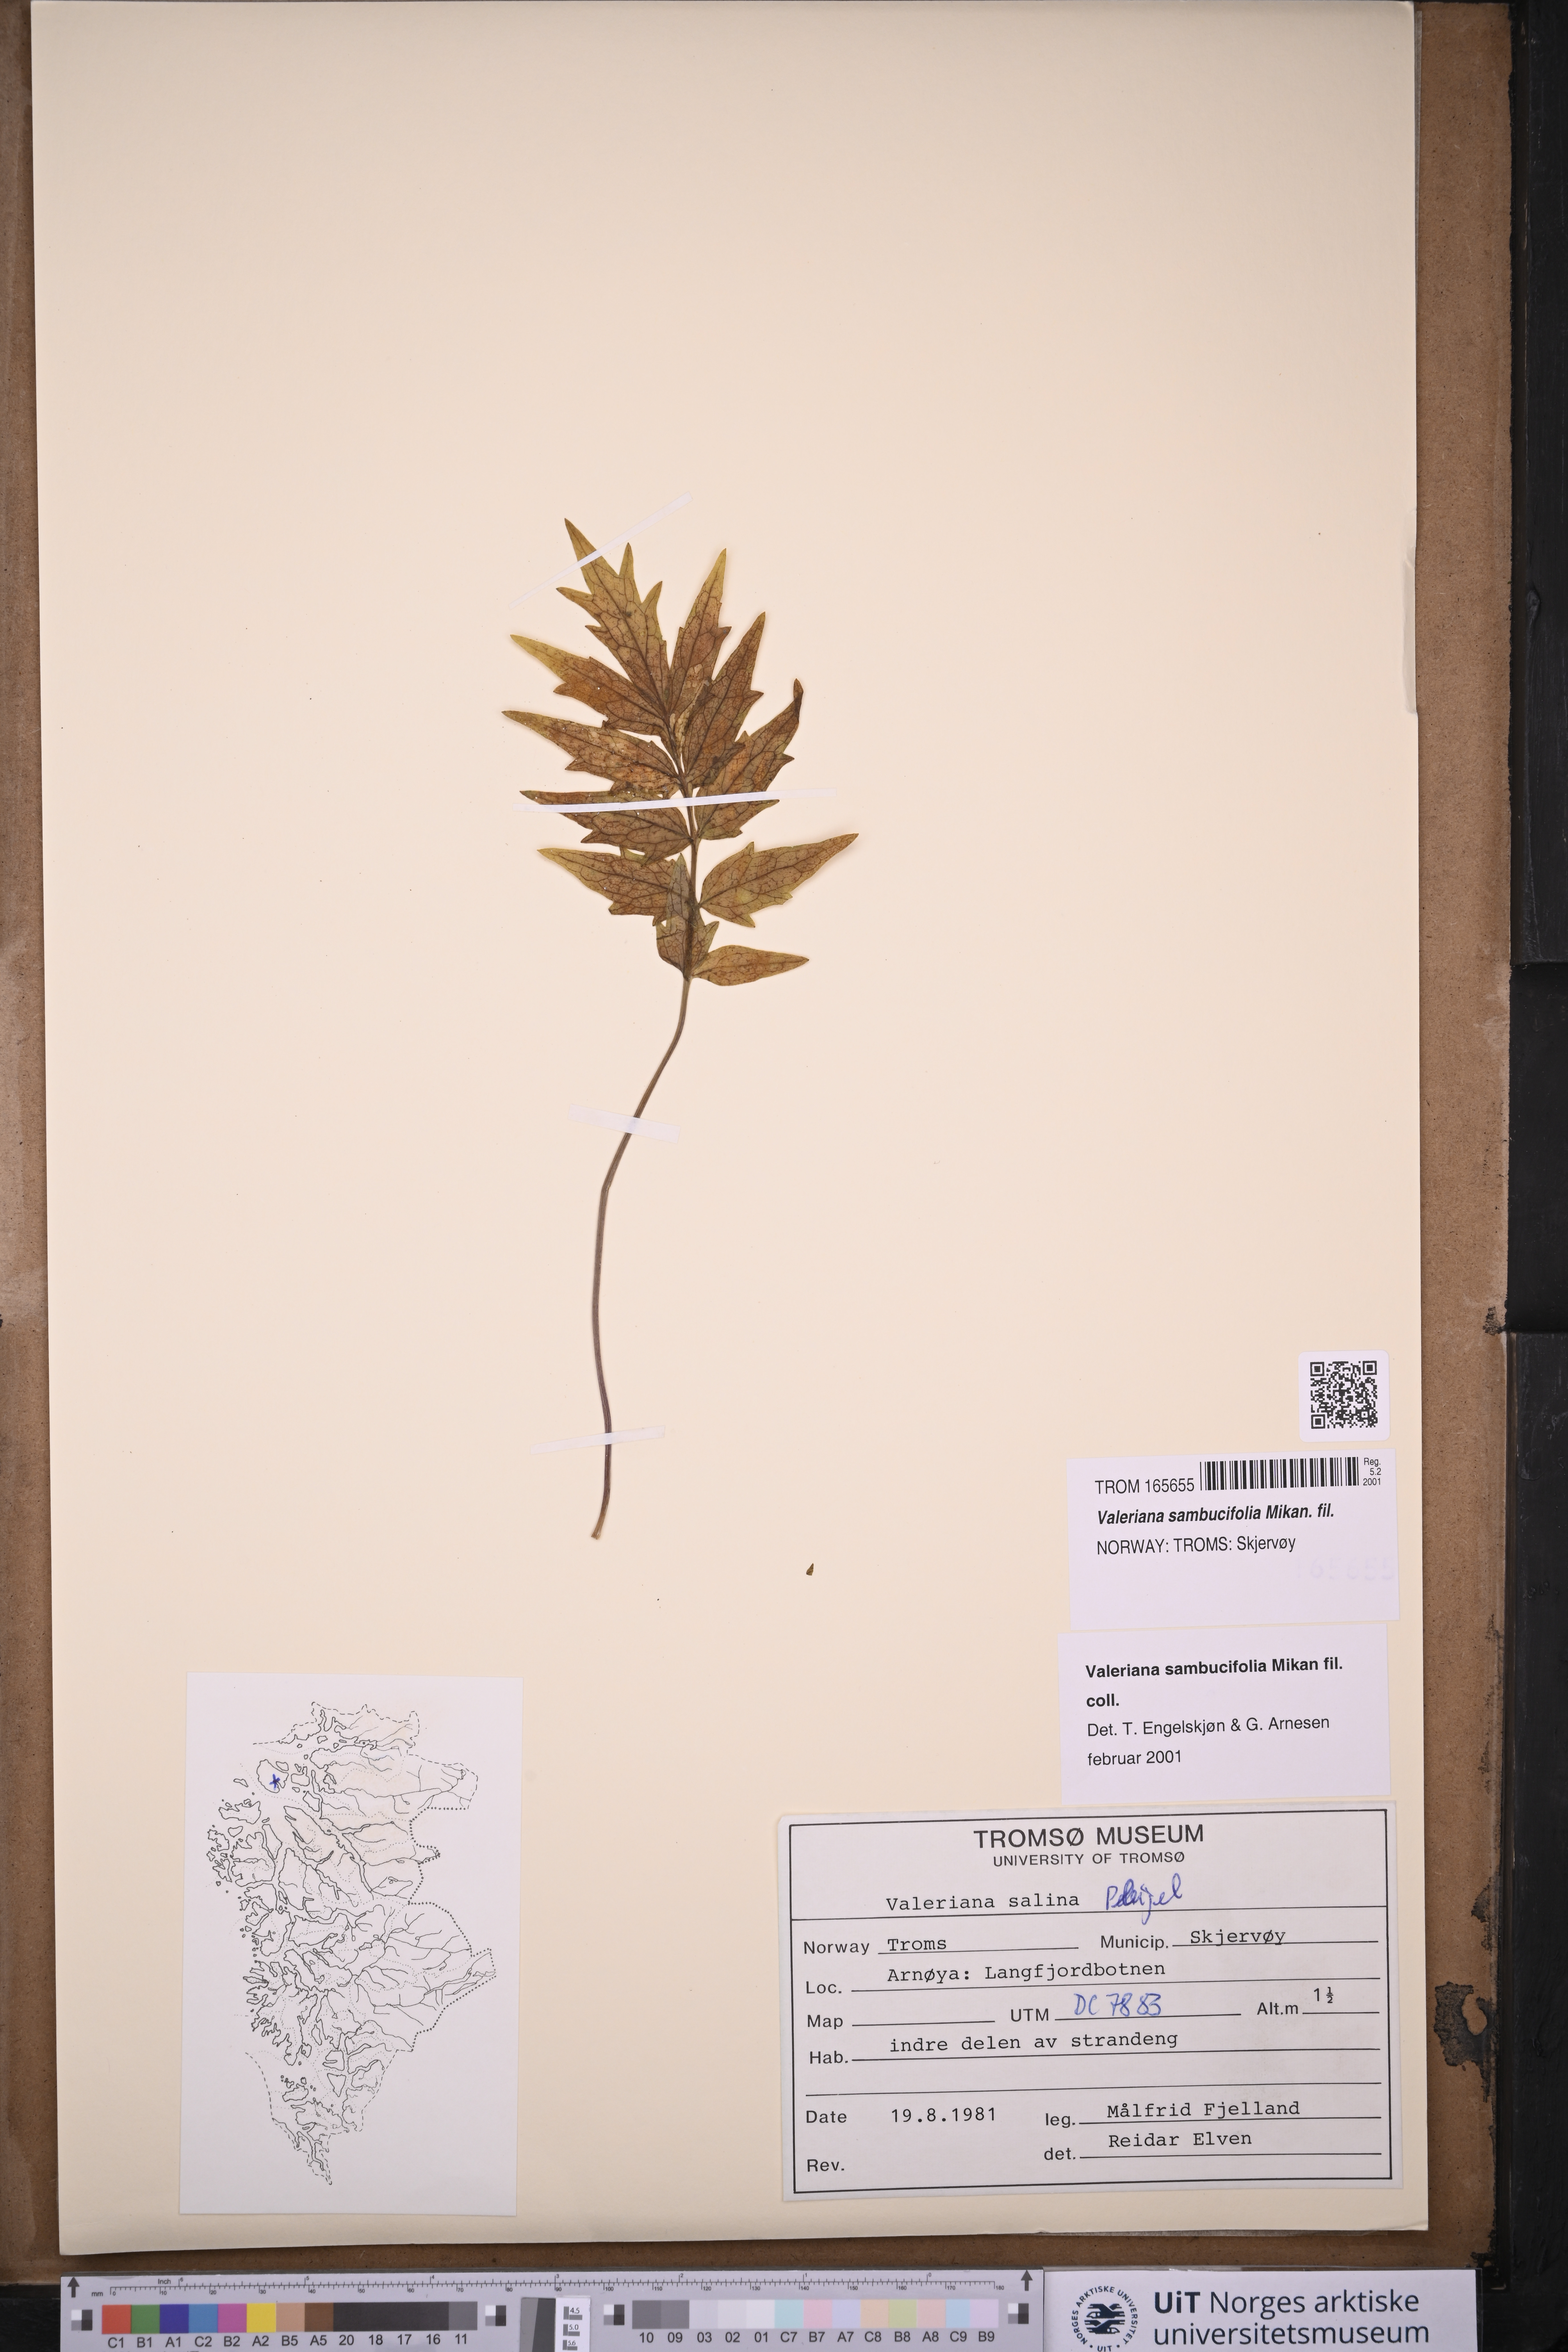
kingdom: Plantae
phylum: Tracheophyta
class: Magnoliopsida
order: Dipsacales
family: Caprifoliaceae
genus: Valeriana
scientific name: Valeriana excelsa
